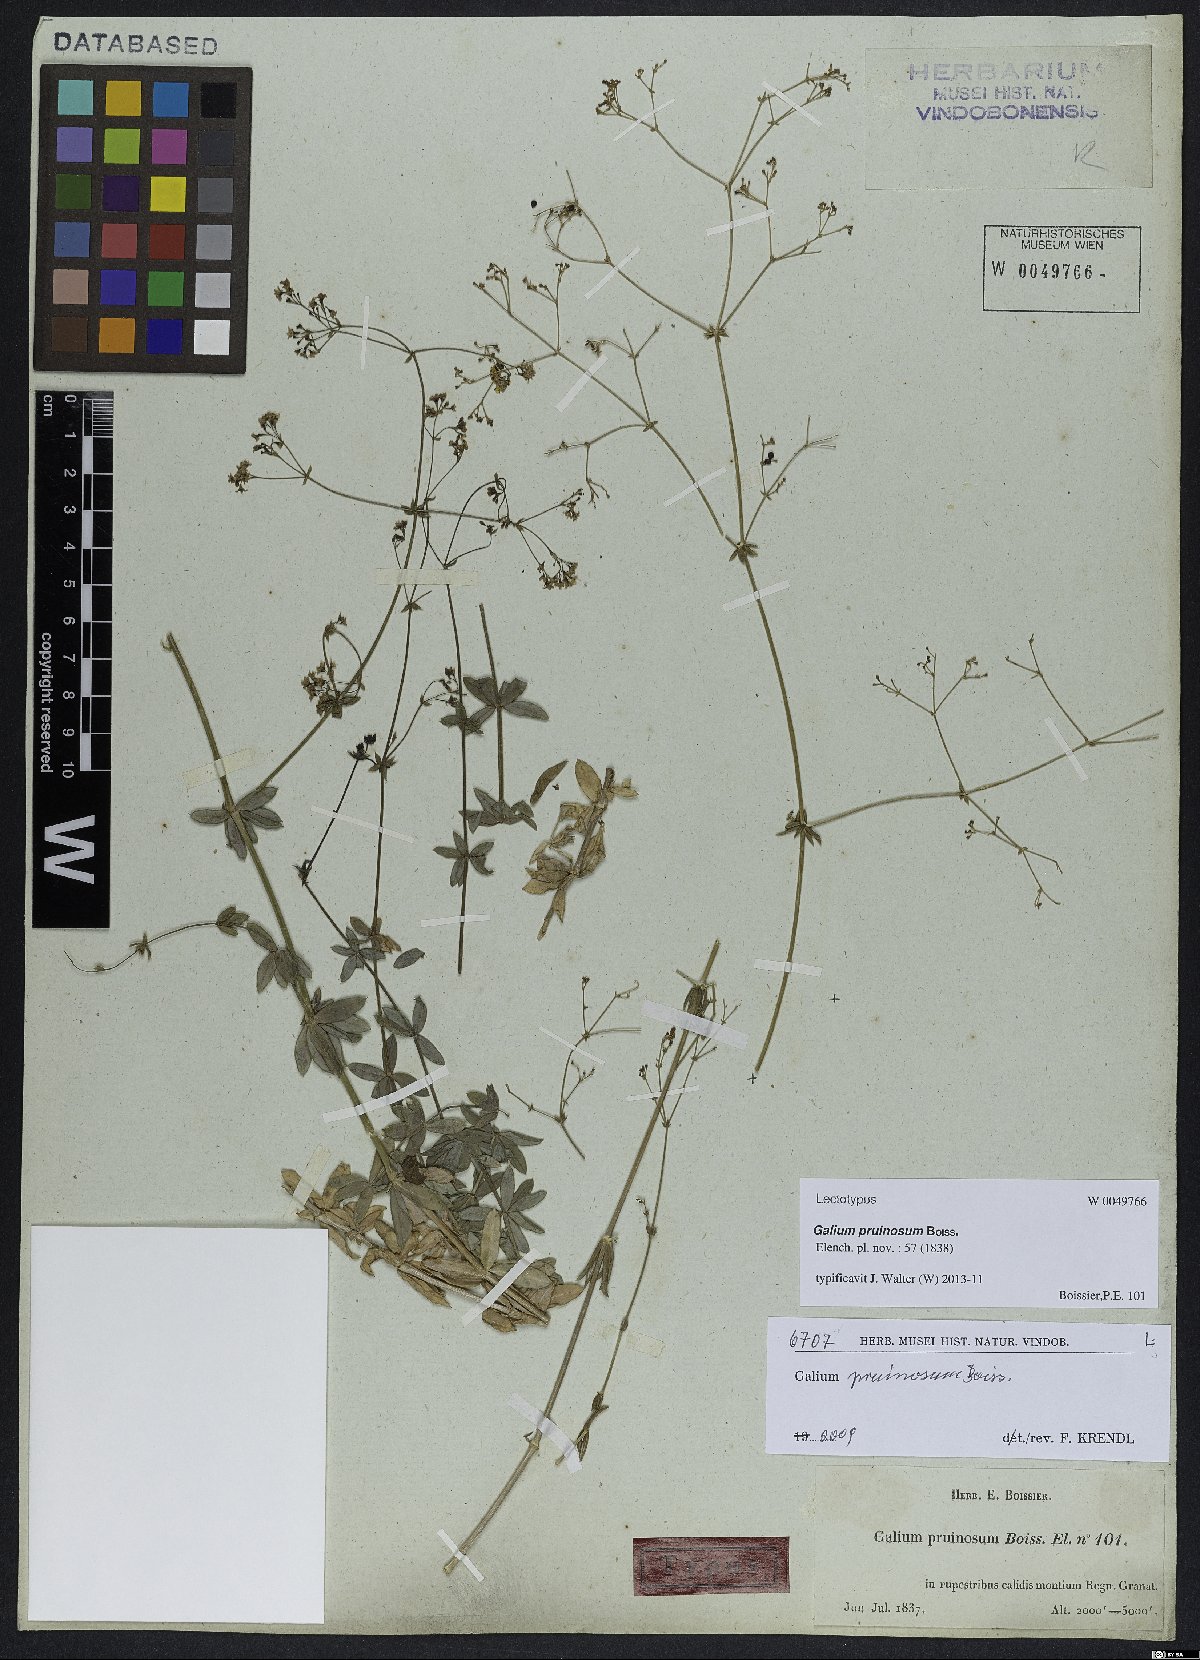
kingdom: Plantae
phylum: Tracheophyta
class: Magnoliopsida
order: Gentianales
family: Rubiaceae
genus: Galium
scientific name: Galium pruinosum
